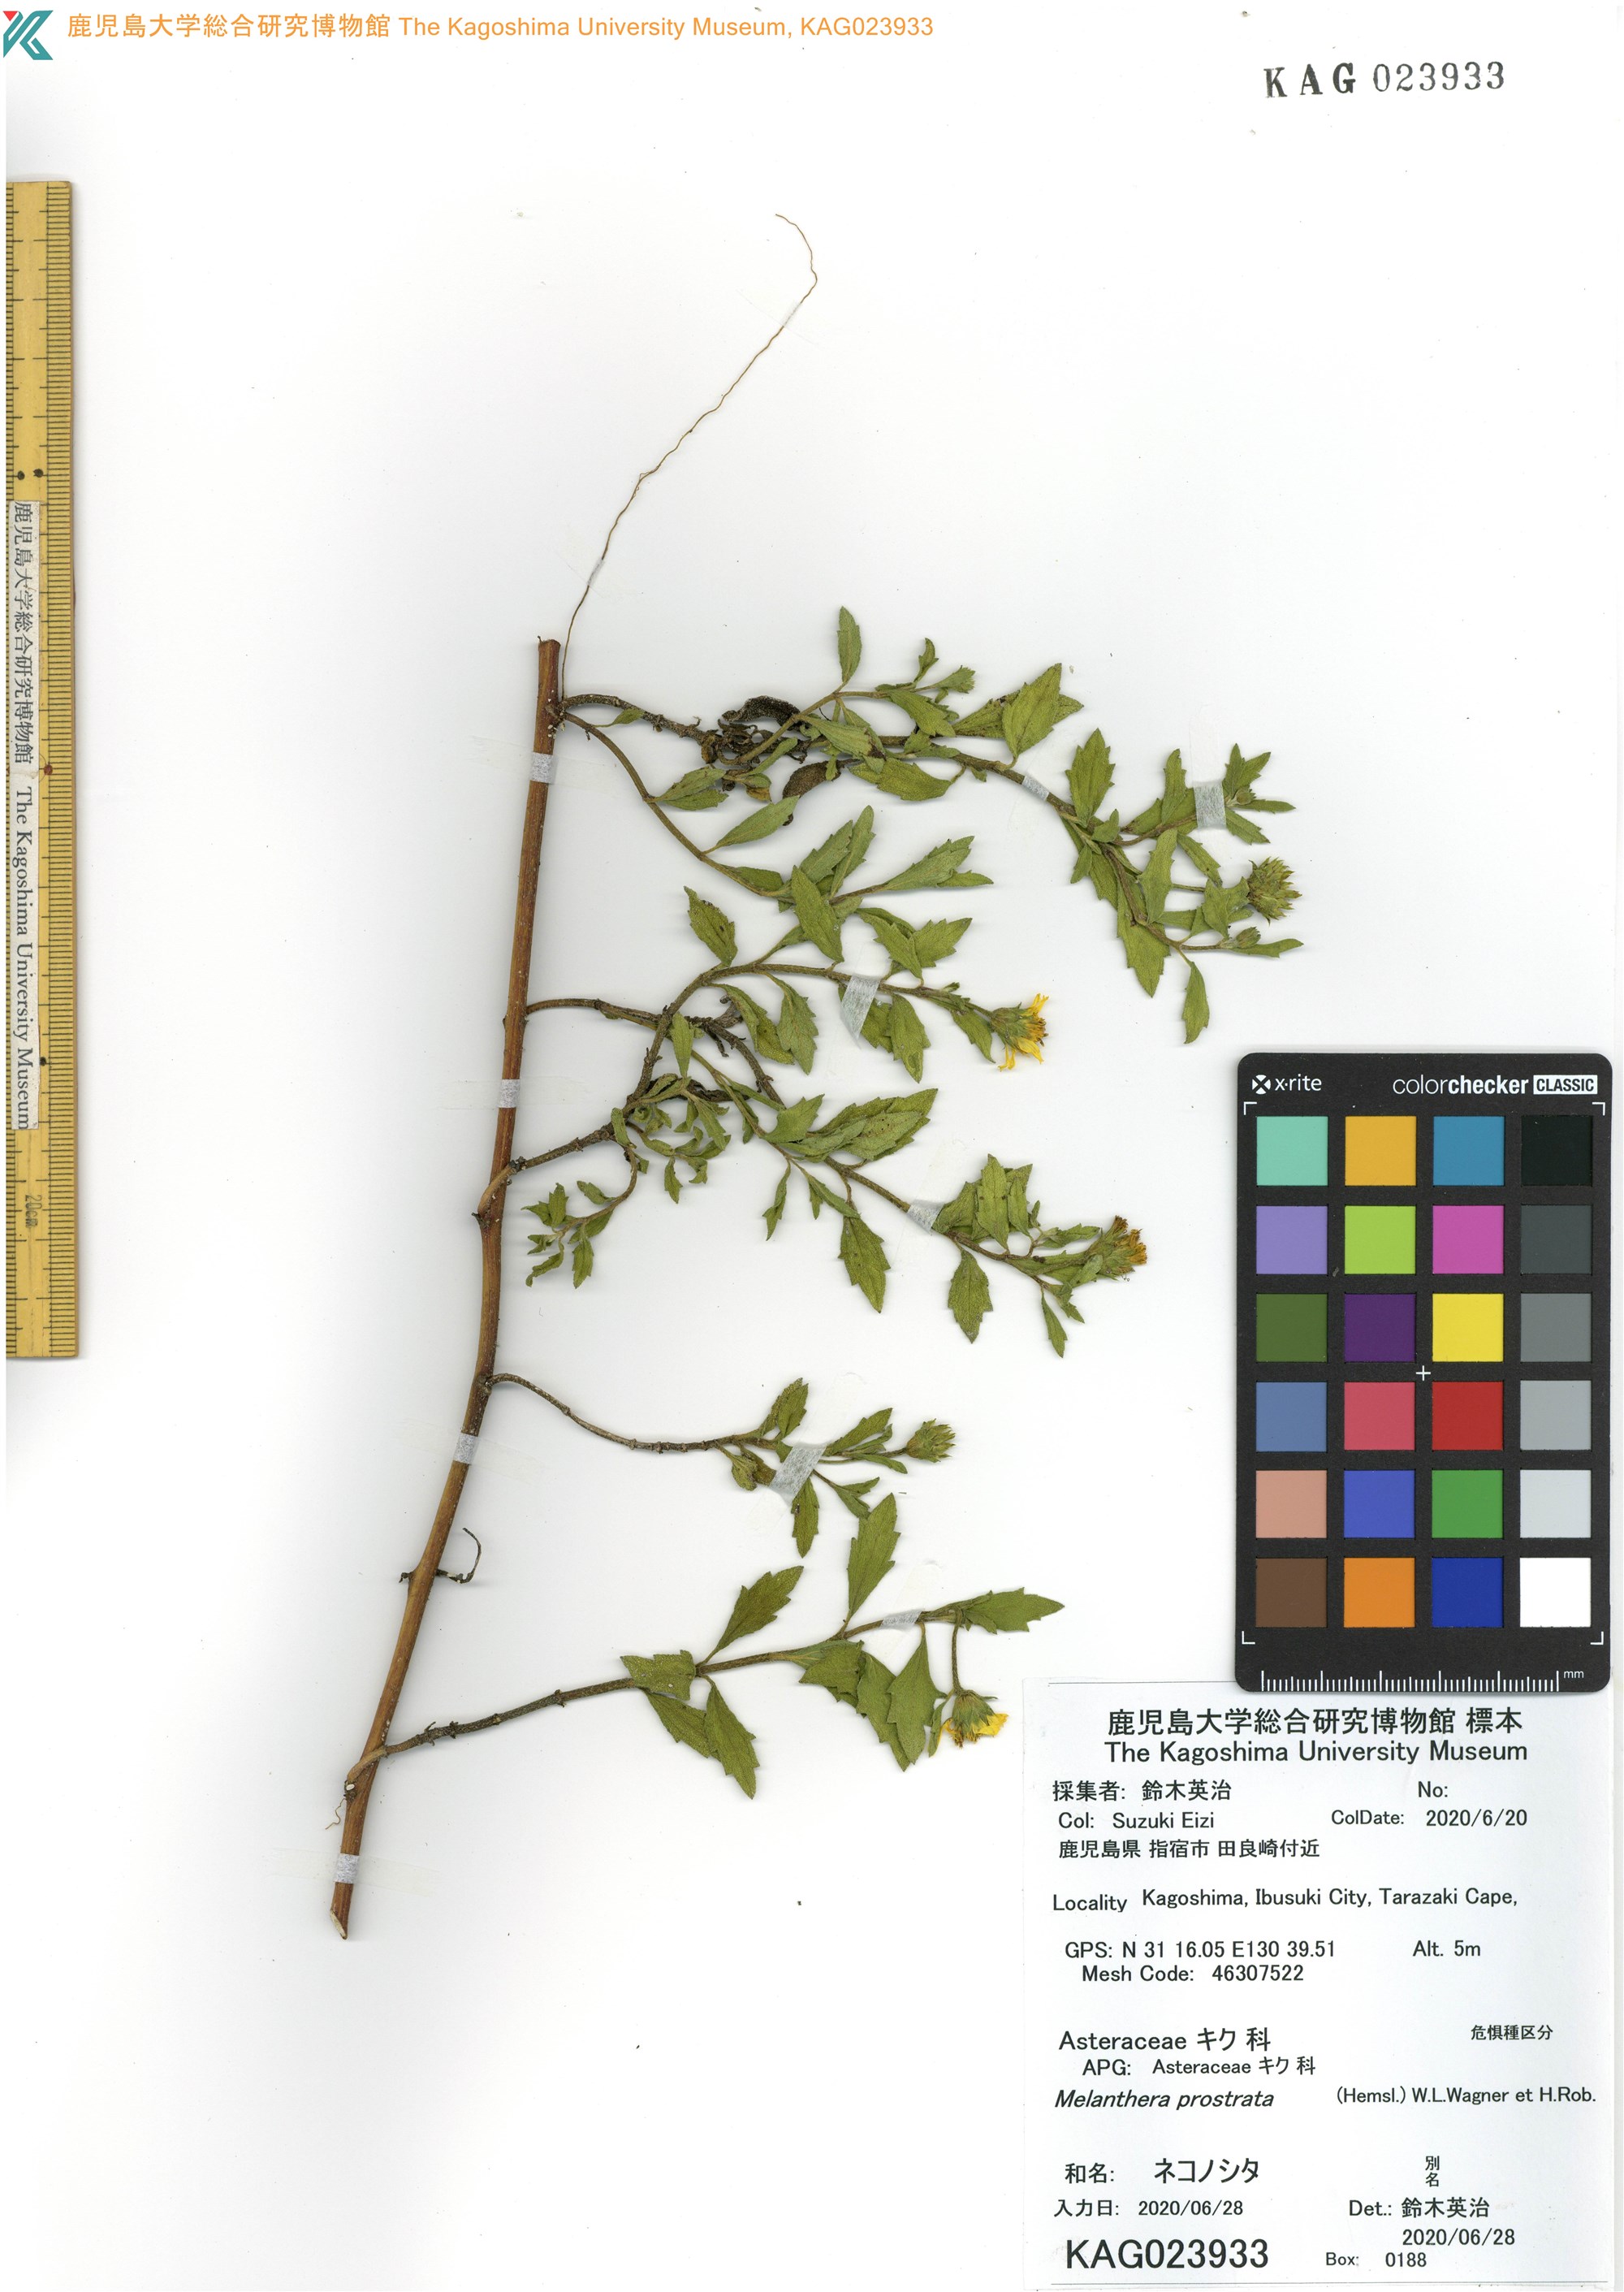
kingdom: Plantae
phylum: Tracheophyta
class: Magnoliopsida
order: Asterales
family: Asteraceae
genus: Melanthera
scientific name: Melanthera prostrata
